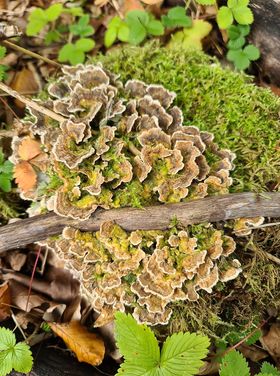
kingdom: Fungi
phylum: Basidiomycota
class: Agaricomycetes
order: Polyporales
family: Polyporaceae
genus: Trametes
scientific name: Trametes versicolor
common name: broget læderporesvamp
